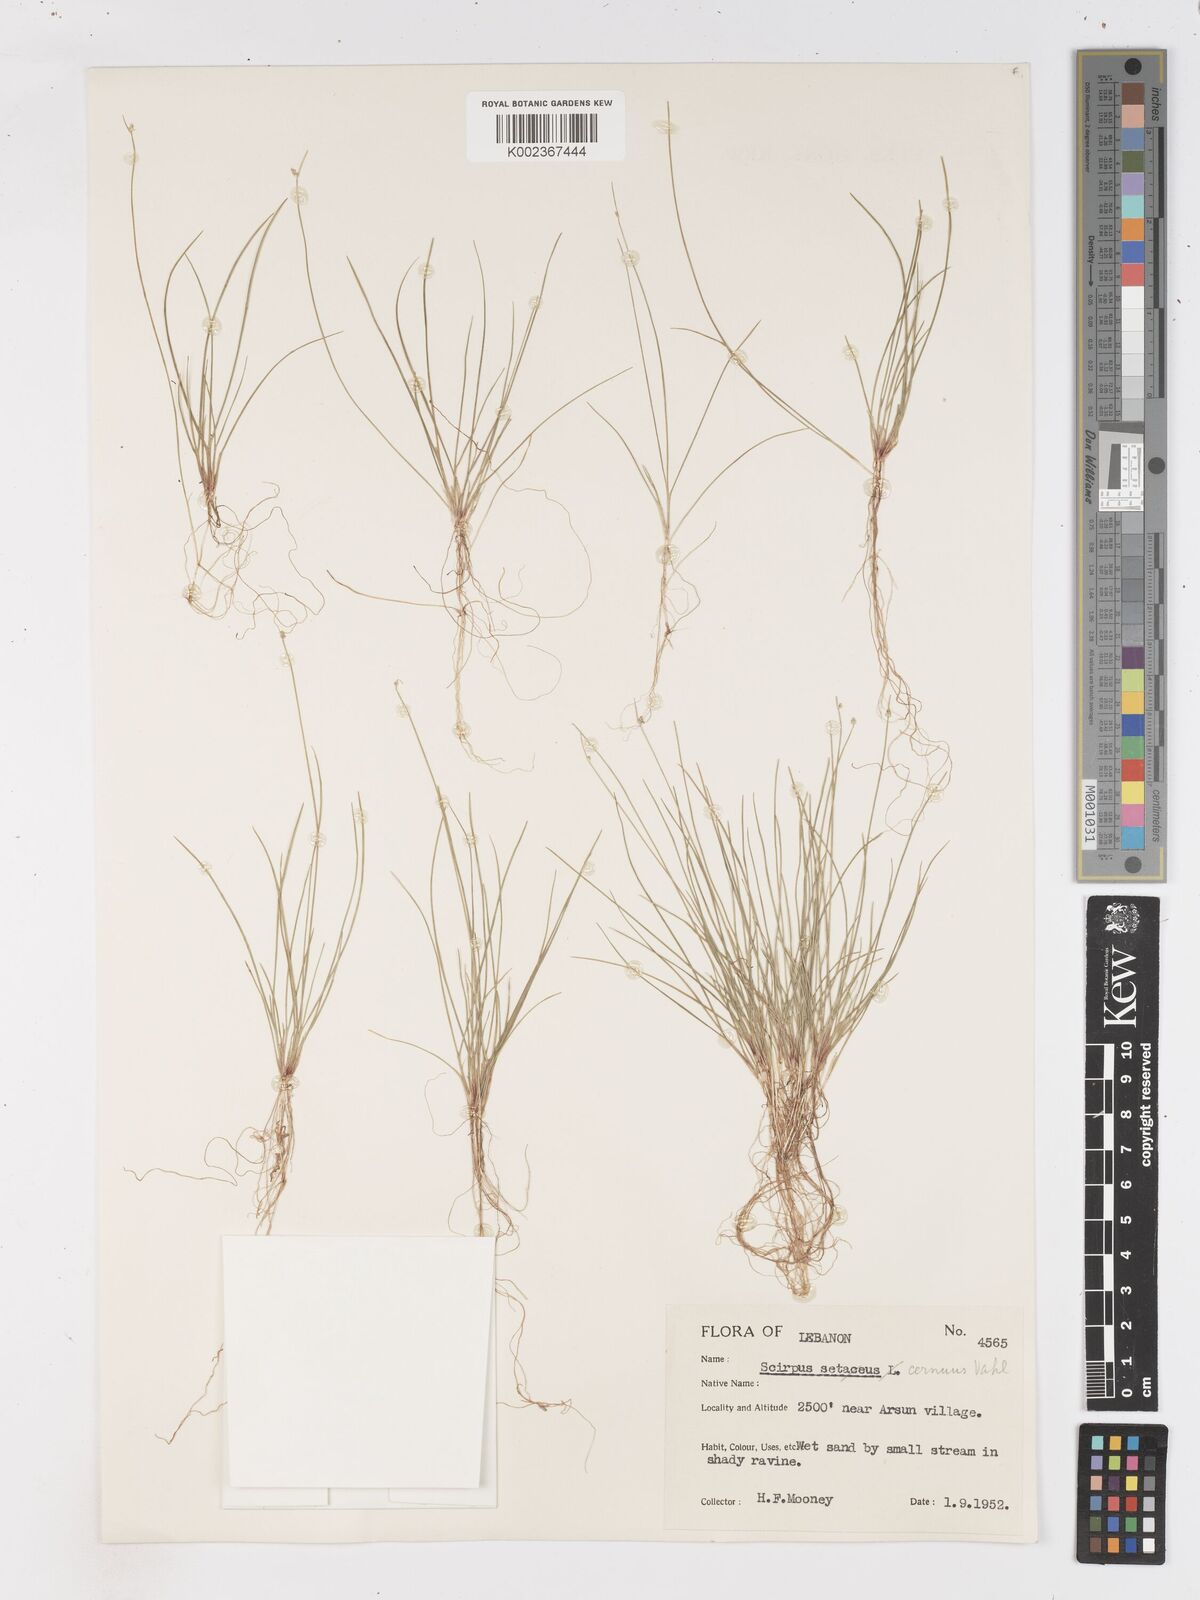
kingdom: Plantae
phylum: Tracheophyta
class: Liliopsida
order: Poales
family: Cyperaceae
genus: Isolepis
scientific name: Isolepis cernua
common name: Slender club-rush
